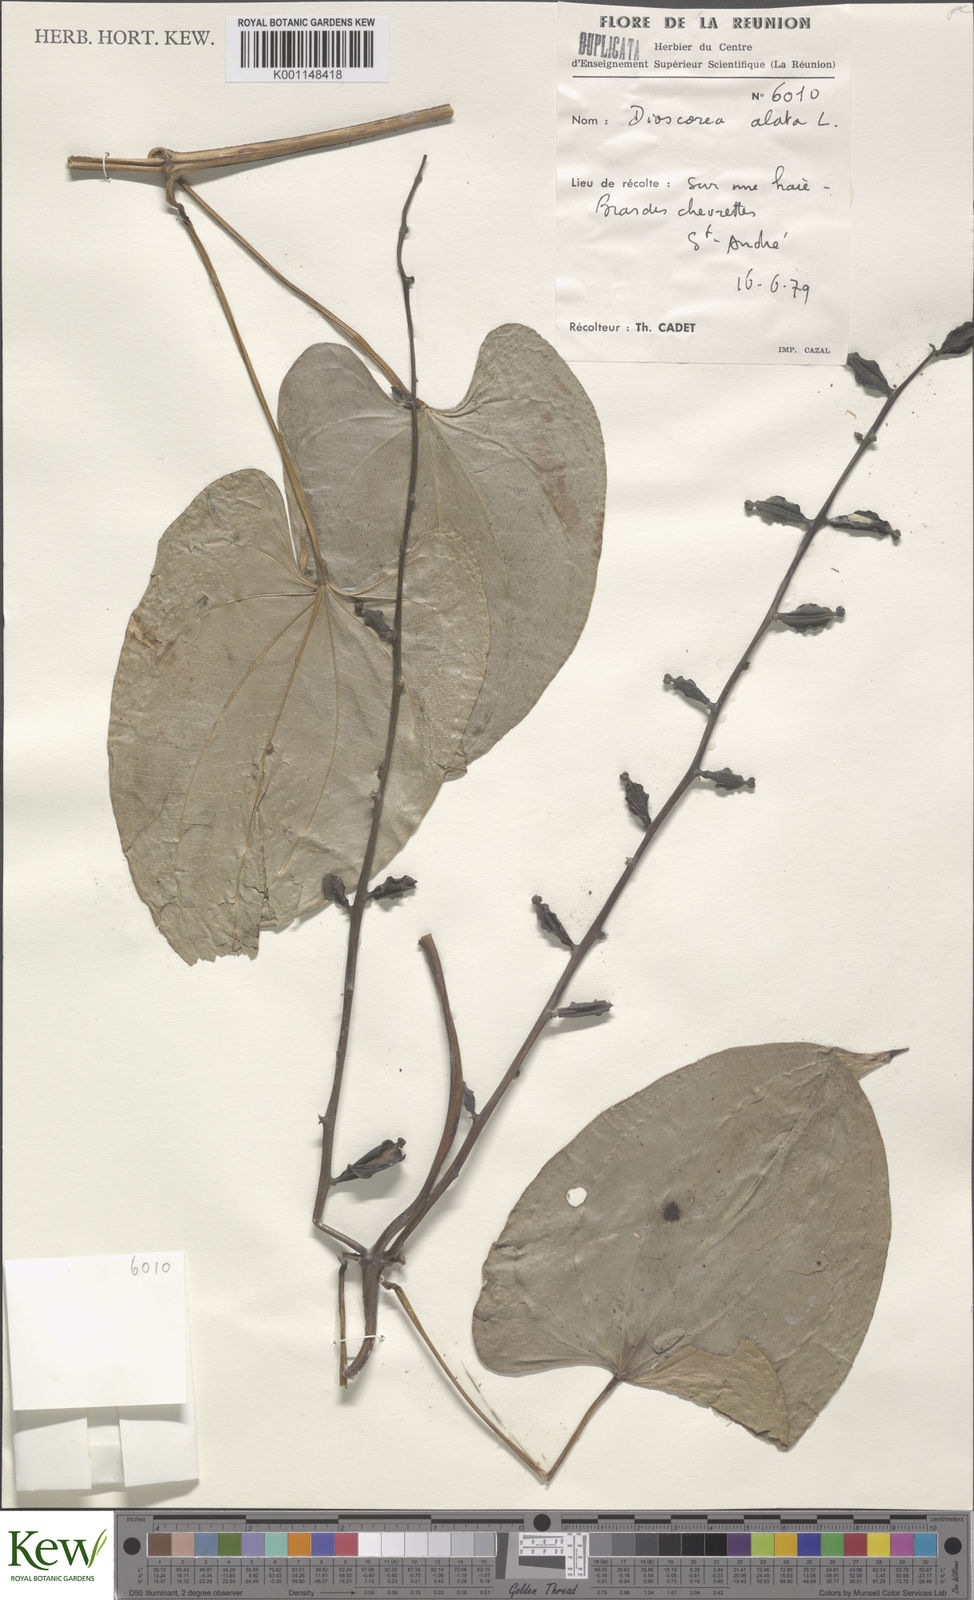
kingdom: Plantae
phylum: Tracheophyta
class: Liliopsida
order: Dioscoreales
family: Dioscoreaceae
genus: Dioscorea
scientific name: Dioscorea alata
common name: Water yam
